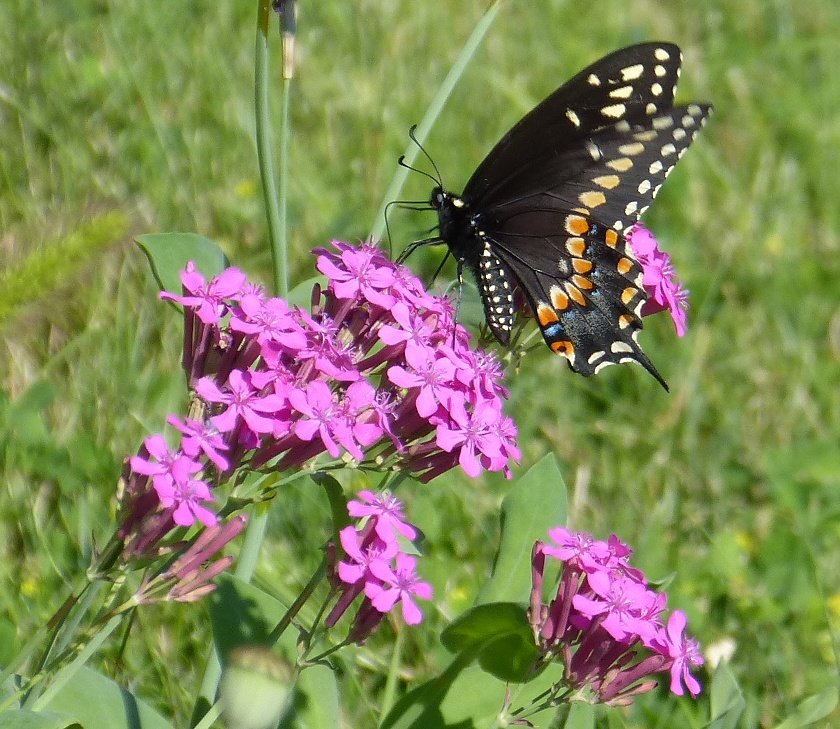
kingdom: Animalia
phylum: Arthropoda
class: Insecta
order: Lepidoptera
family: Papilionidae
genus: Papilio
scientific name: Papilio polyxenes
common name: Black Swallowtail
